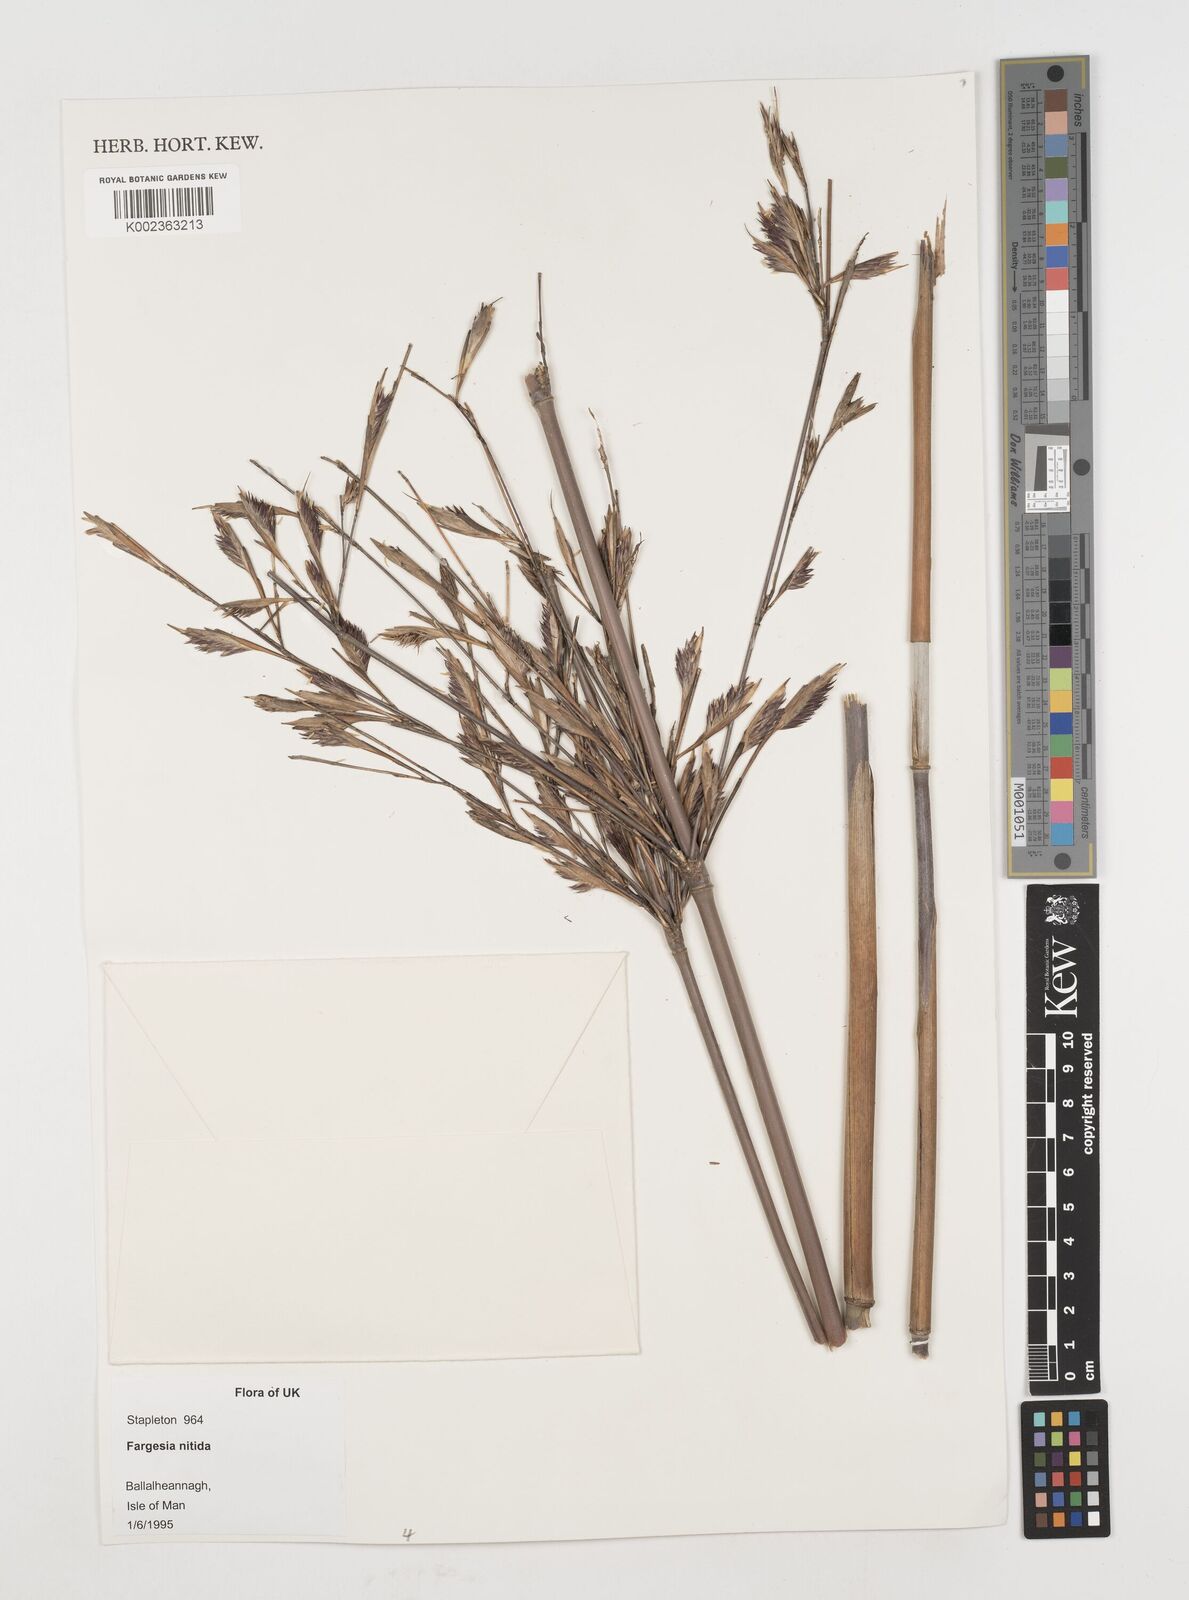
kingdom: Plantae
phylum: Tracheophyta
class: Liliopsida
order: Poales
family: Poaceae
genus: Fargesia
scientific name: Fargesia nitida ex
